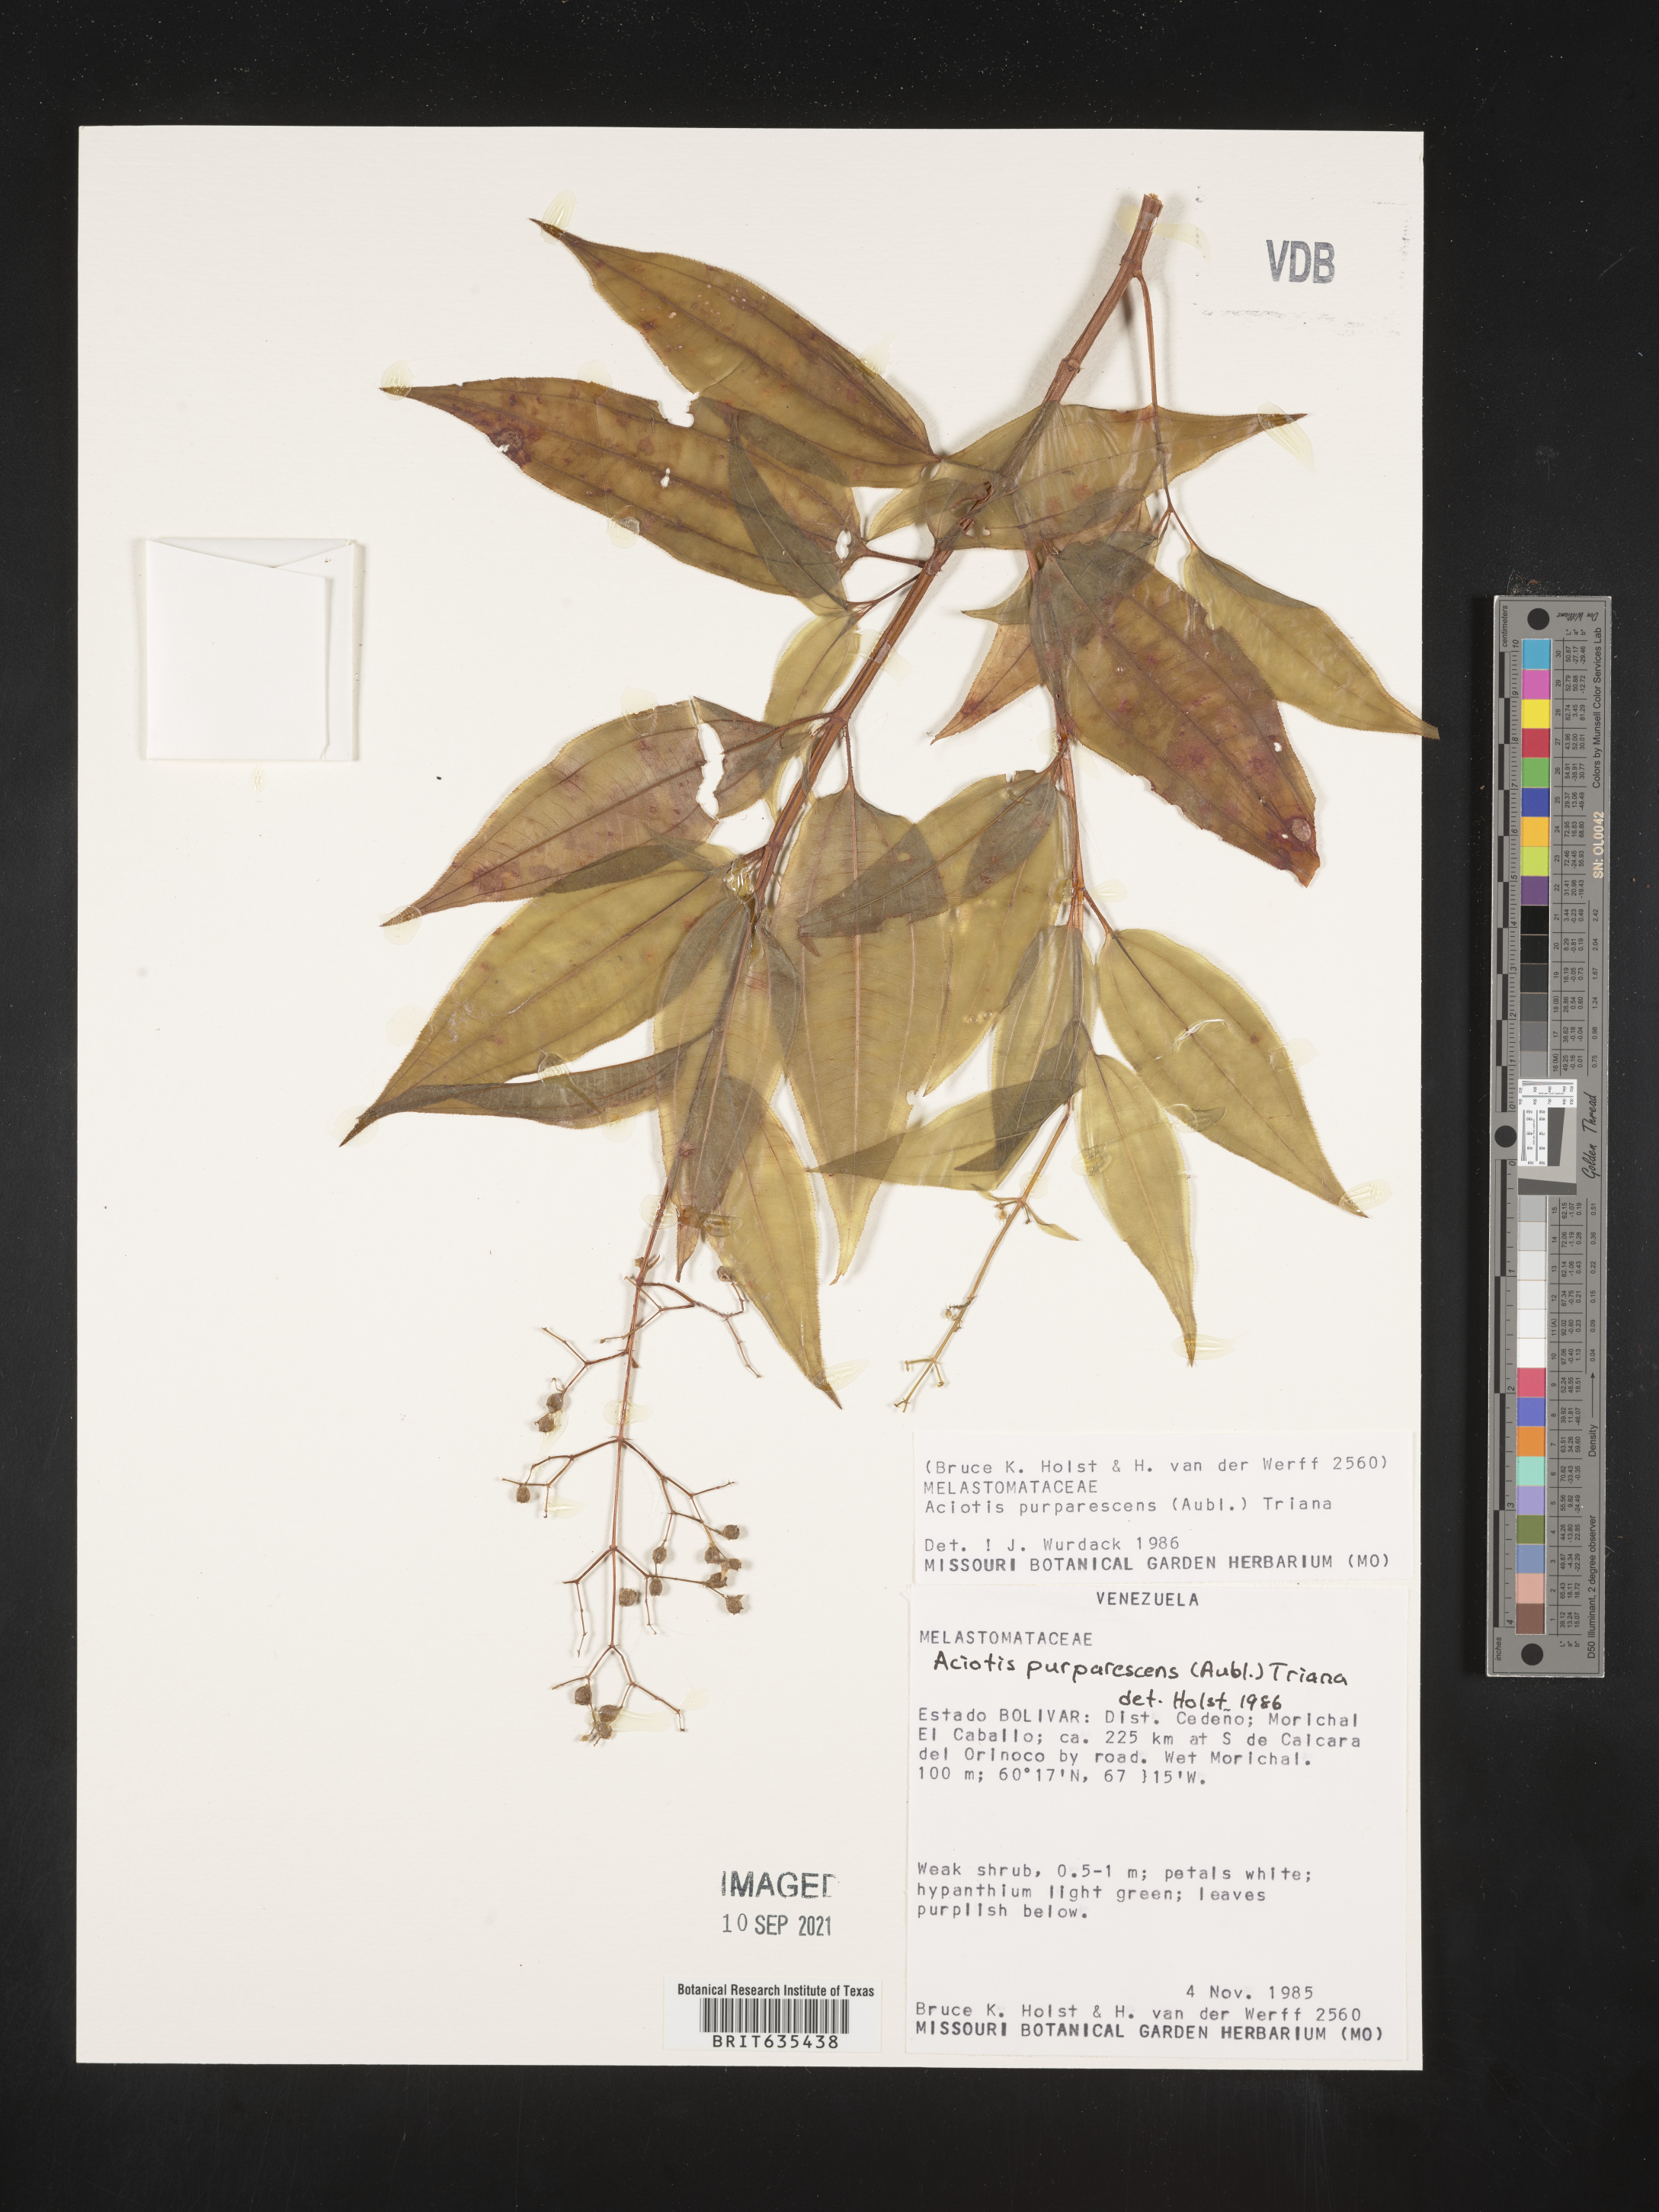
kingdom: Plantae
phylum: Tracheophyta
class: Magnoliopsida
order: Myrtales
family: Melastomataceae
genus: Aciotis
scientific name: Aciotis
